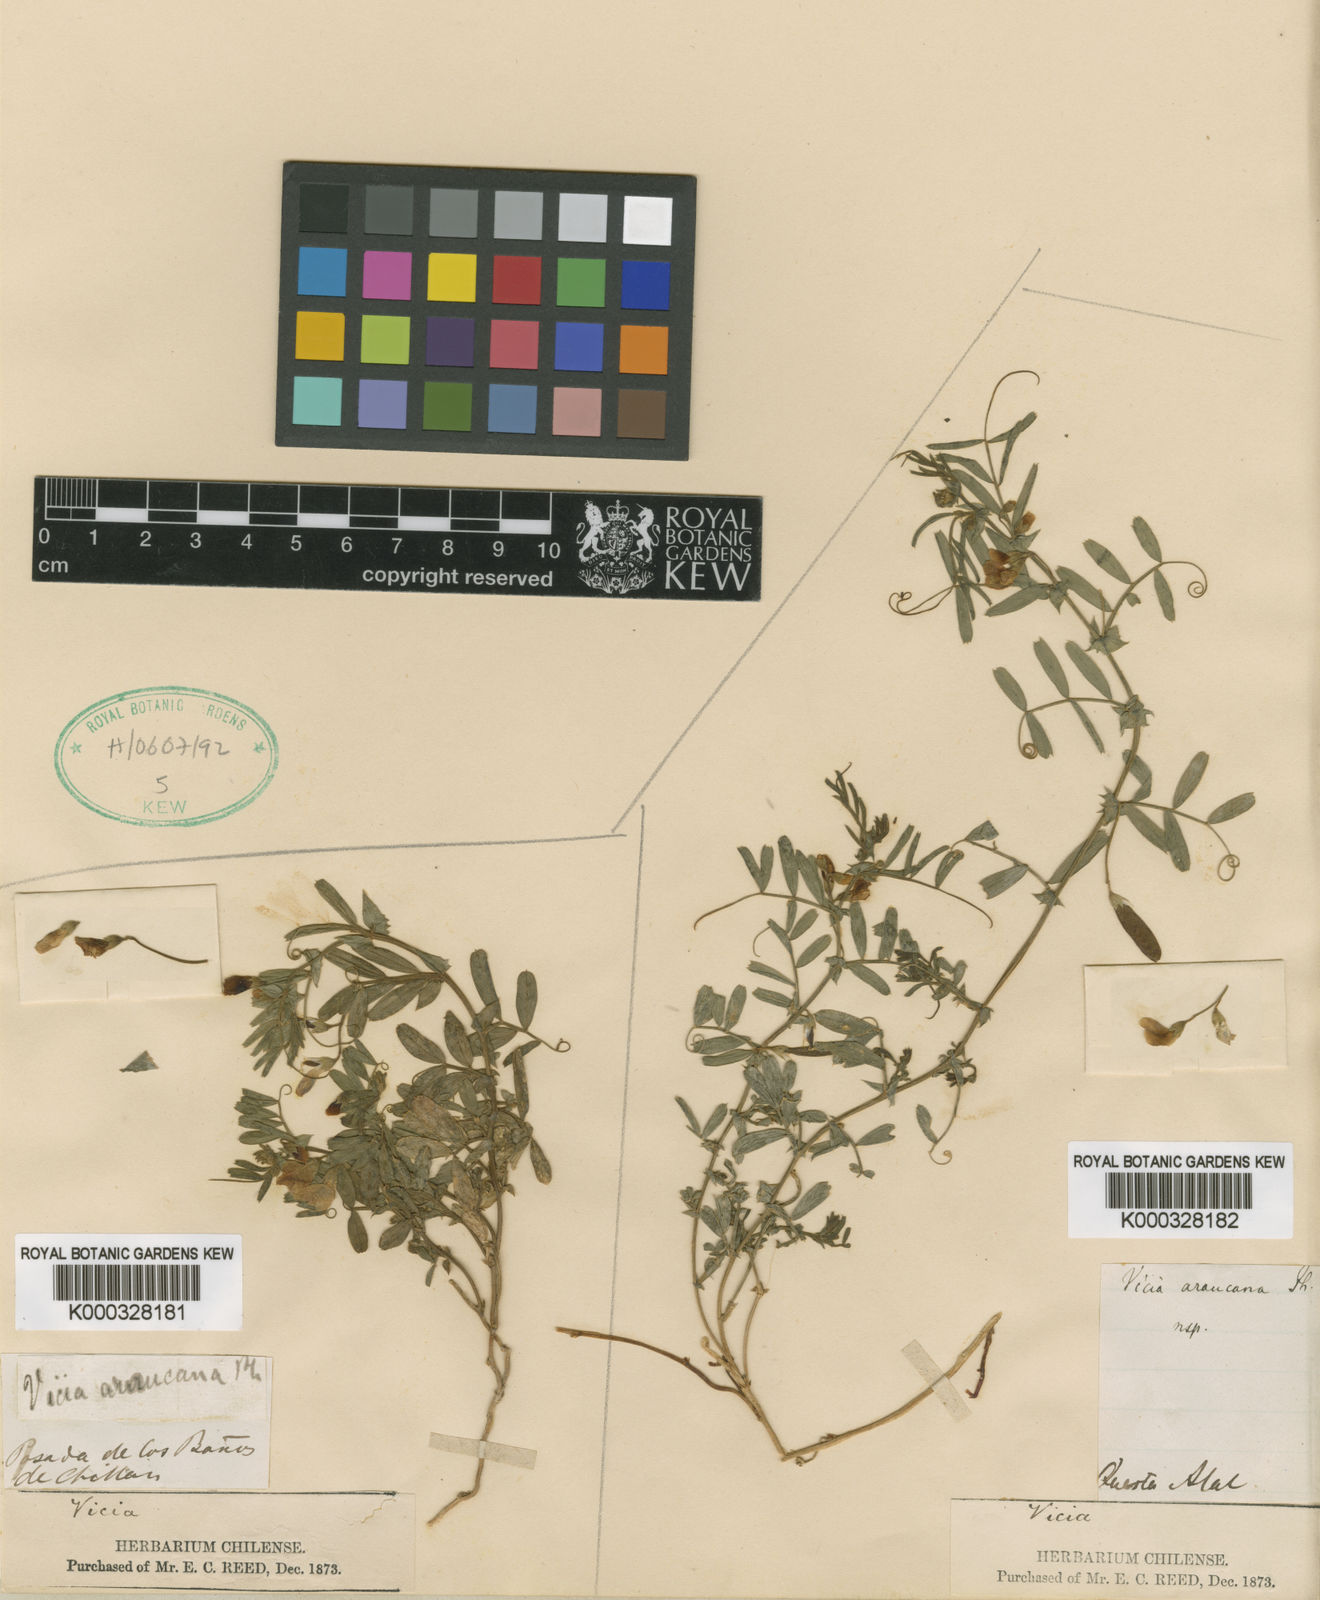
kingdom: Plantae
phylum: Tracheophyta
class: Magnoliopsida
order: Fabales
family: Fabaceae
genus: Vicia
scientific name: Vicia araucana
